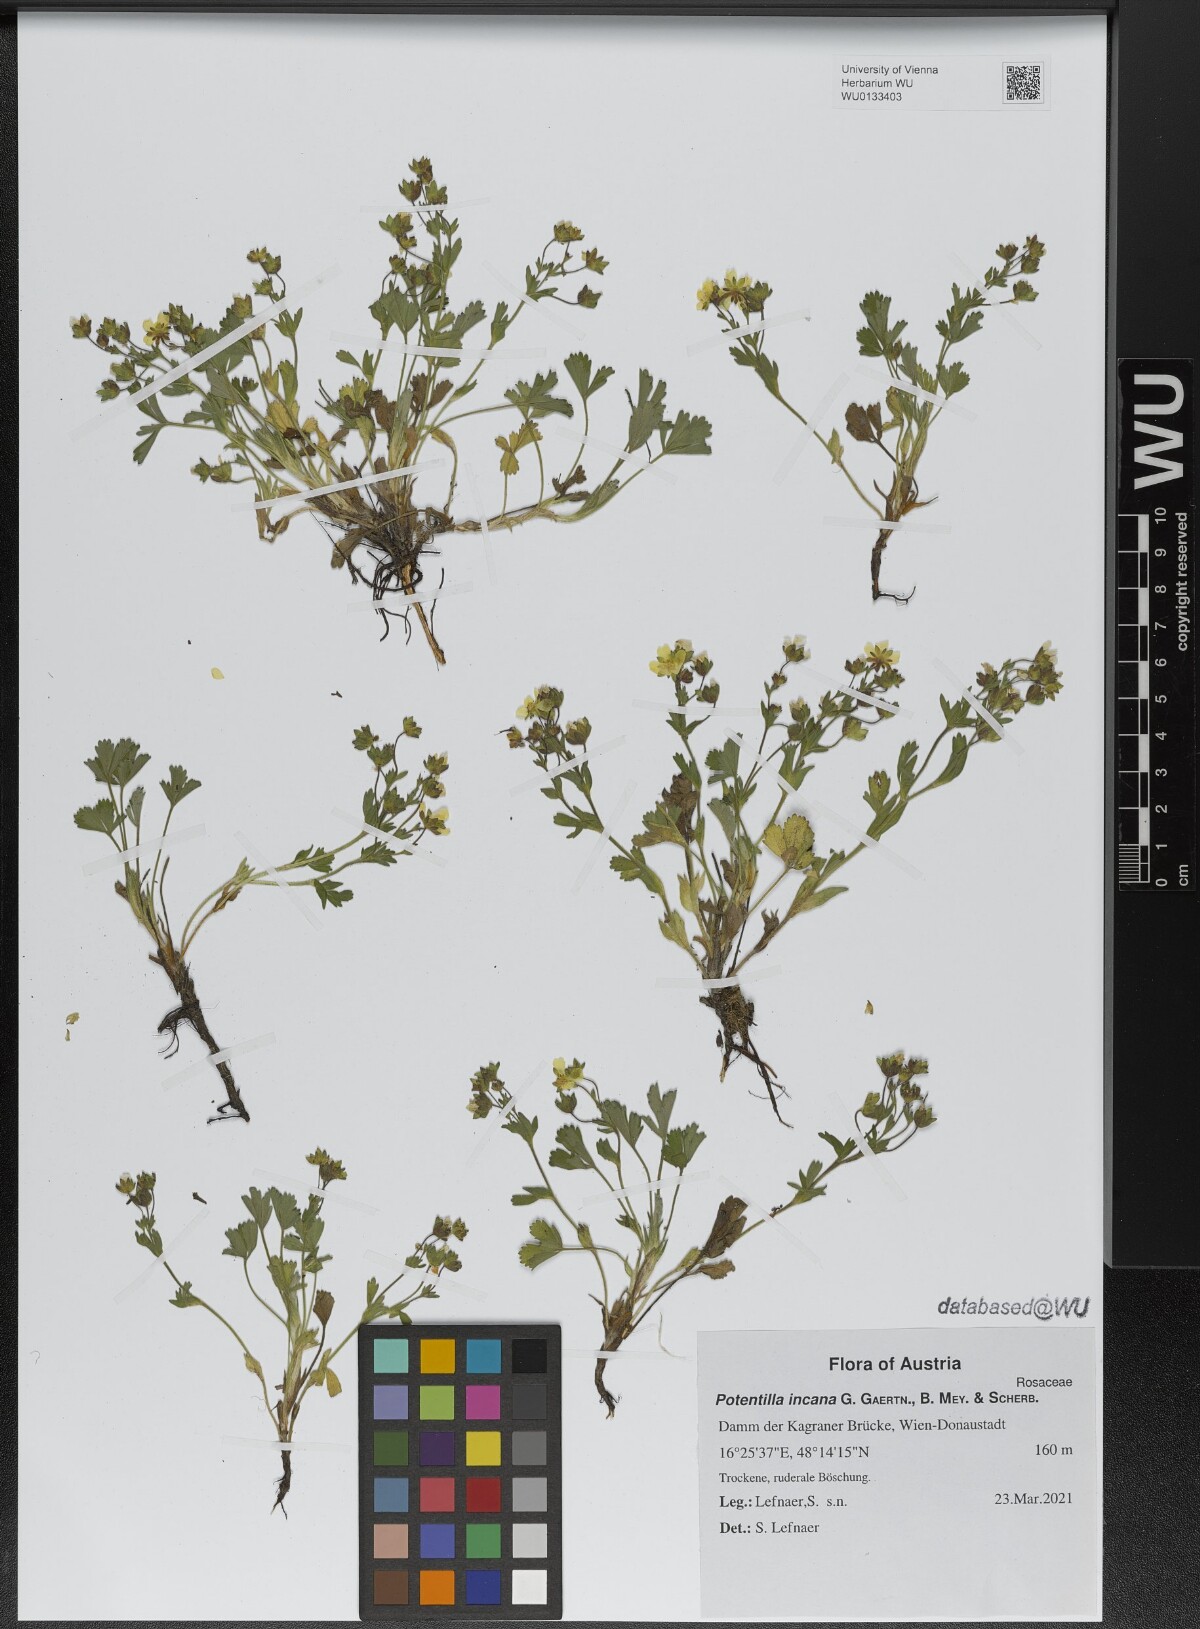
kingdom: Plantae
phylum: Tracheophyta
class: Magnoliopsida
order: Rosales
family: Rosaceae
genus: Potentilla
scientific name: Potentilla cinerea
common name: Ashy cinquefoil
